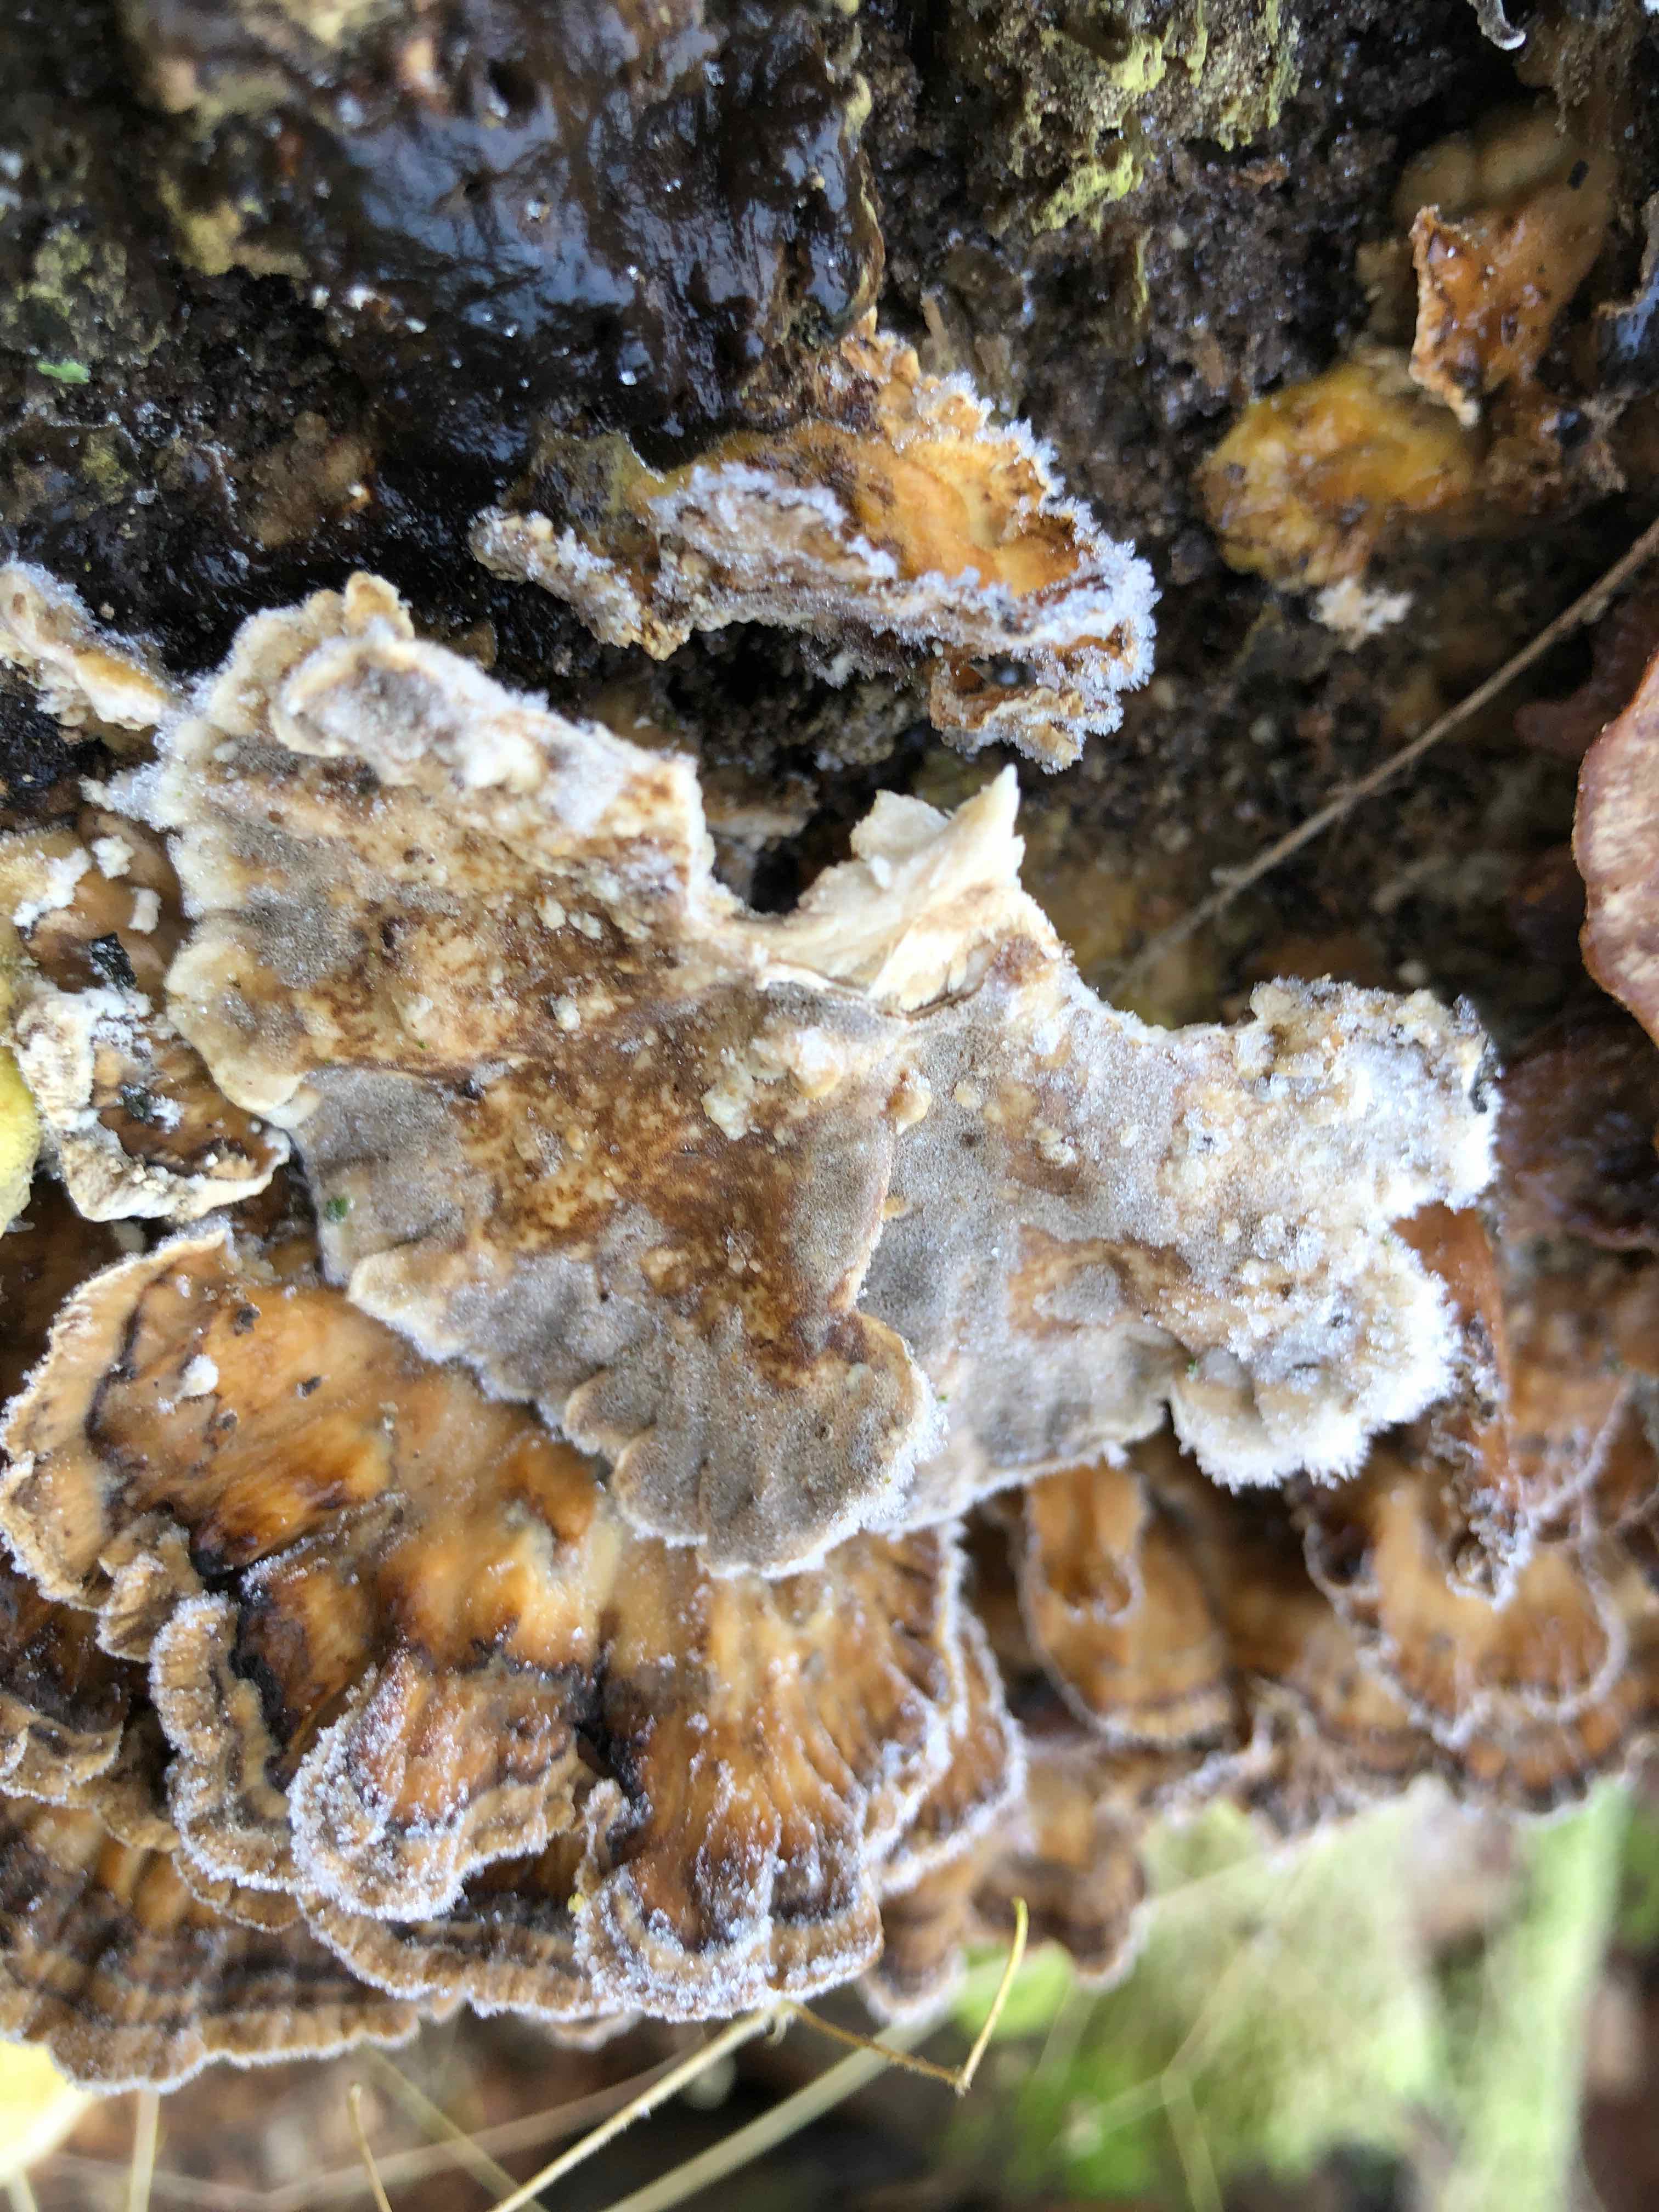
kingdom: Fungi
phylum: Basidiomycota
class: Agaricomycetes
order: Polyporales
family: Phanerochaetaceae
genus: Bjerkandera
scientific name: Bjerkandera adusta
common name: sveden sodporesvamp
